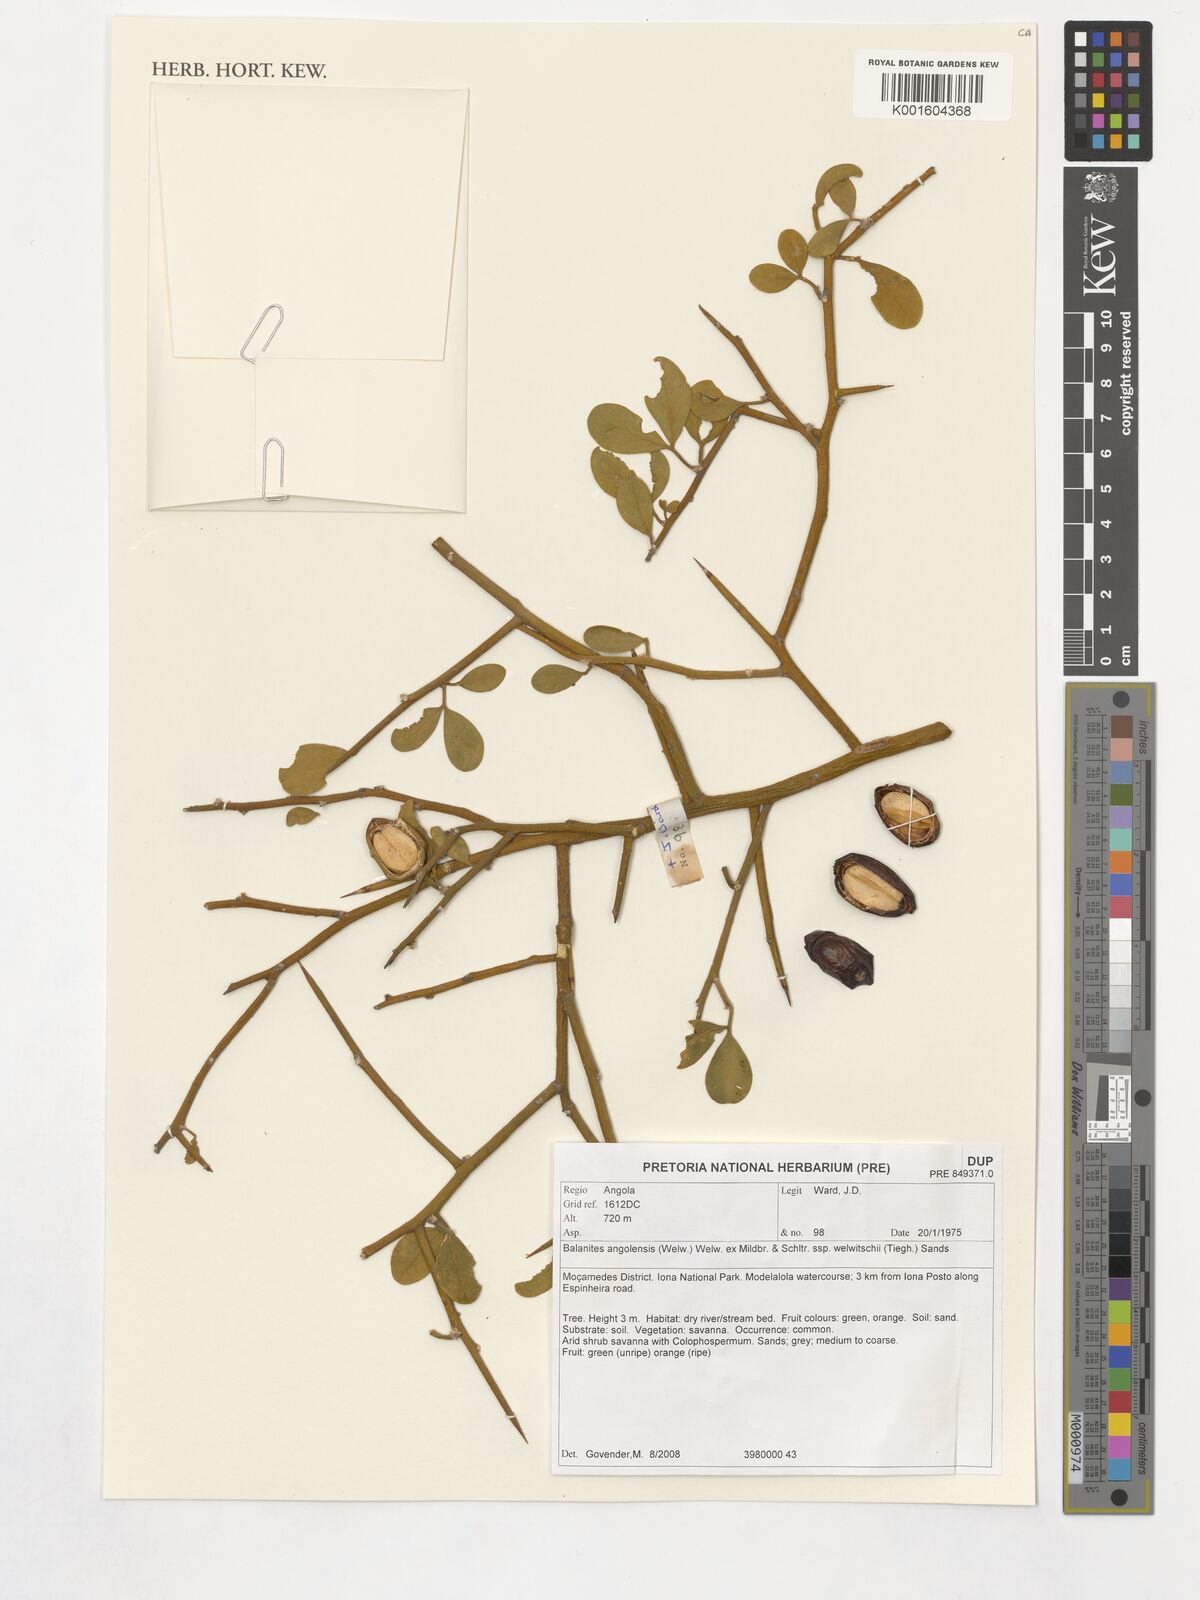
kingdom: Plantae
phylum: Tracheophyta
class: Magnoliopsida
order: Zygophyllales
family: Zygophyllaceae
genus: Balanites
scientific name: Balanites angolensis
